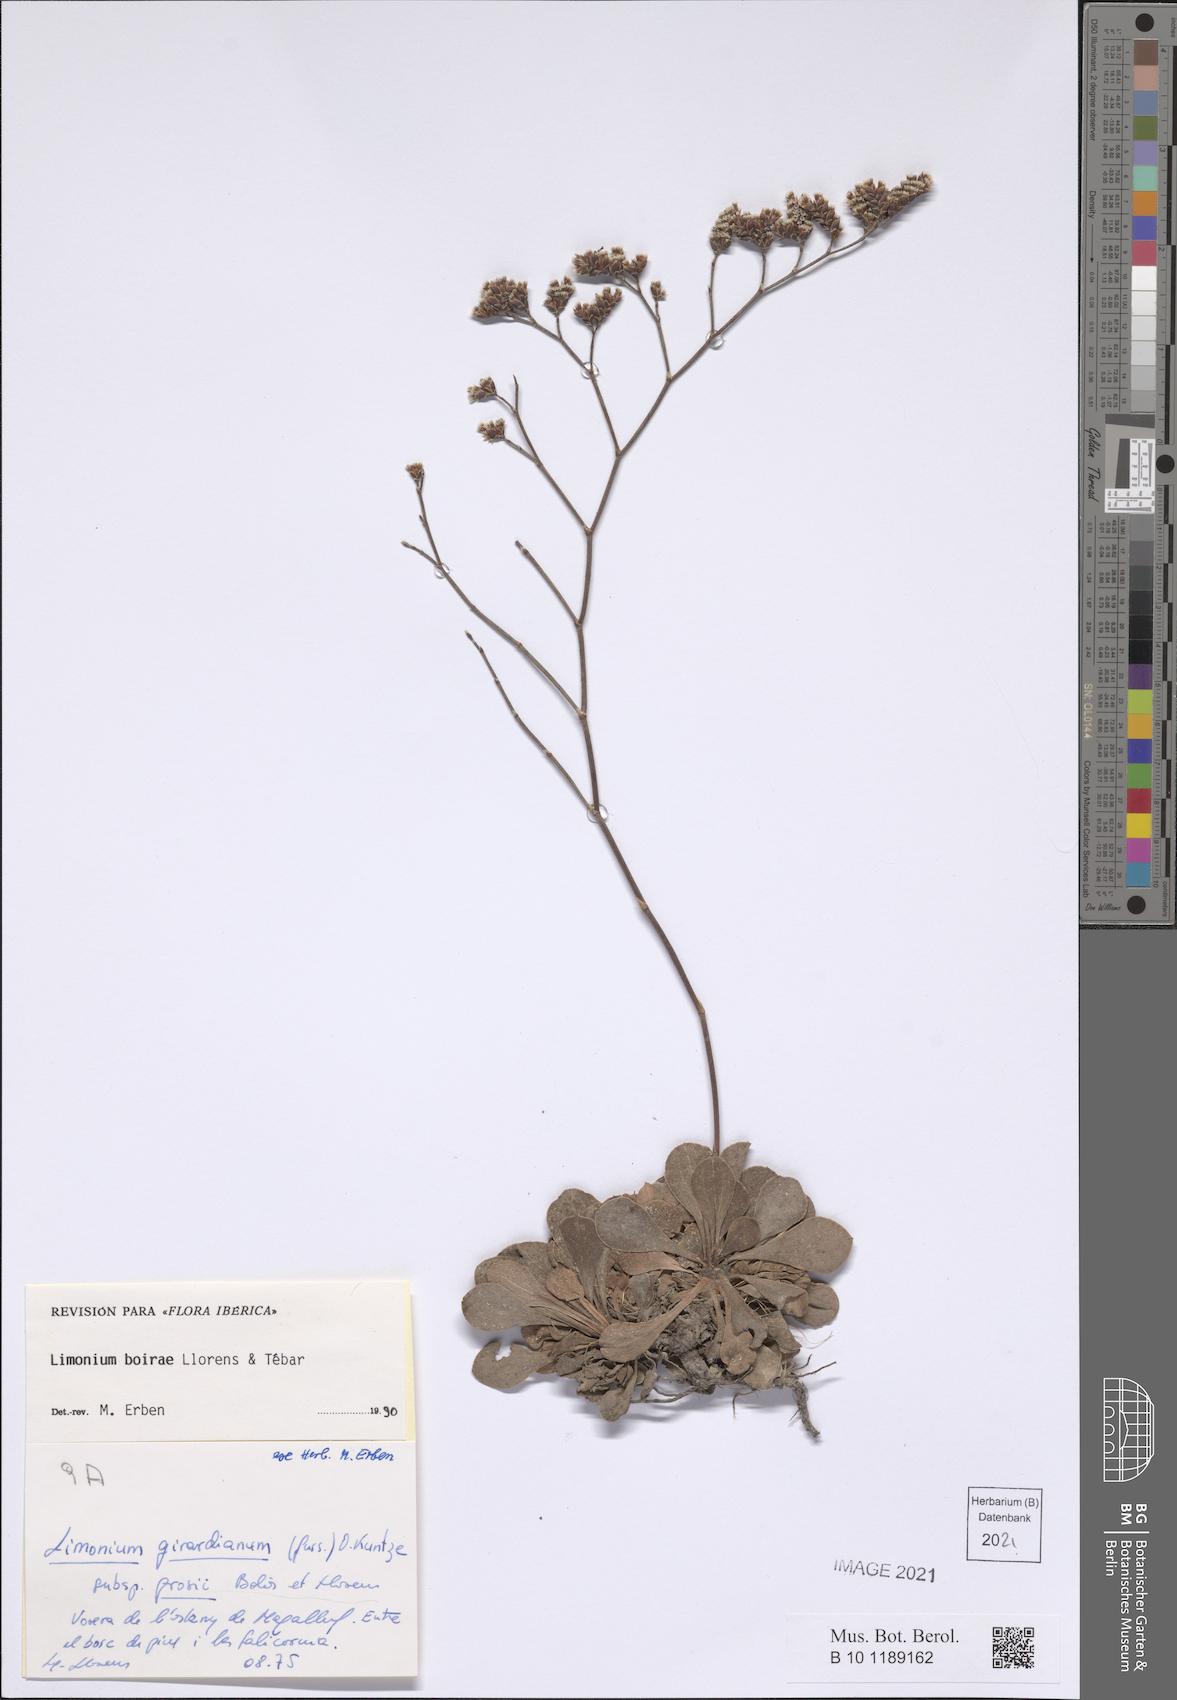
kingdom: Plantae
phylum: Tracheophyta
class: Magnoliopsida
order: Caryophyllales
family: Plumbaginaceae
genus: Limonium
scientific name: Limonium boirae
